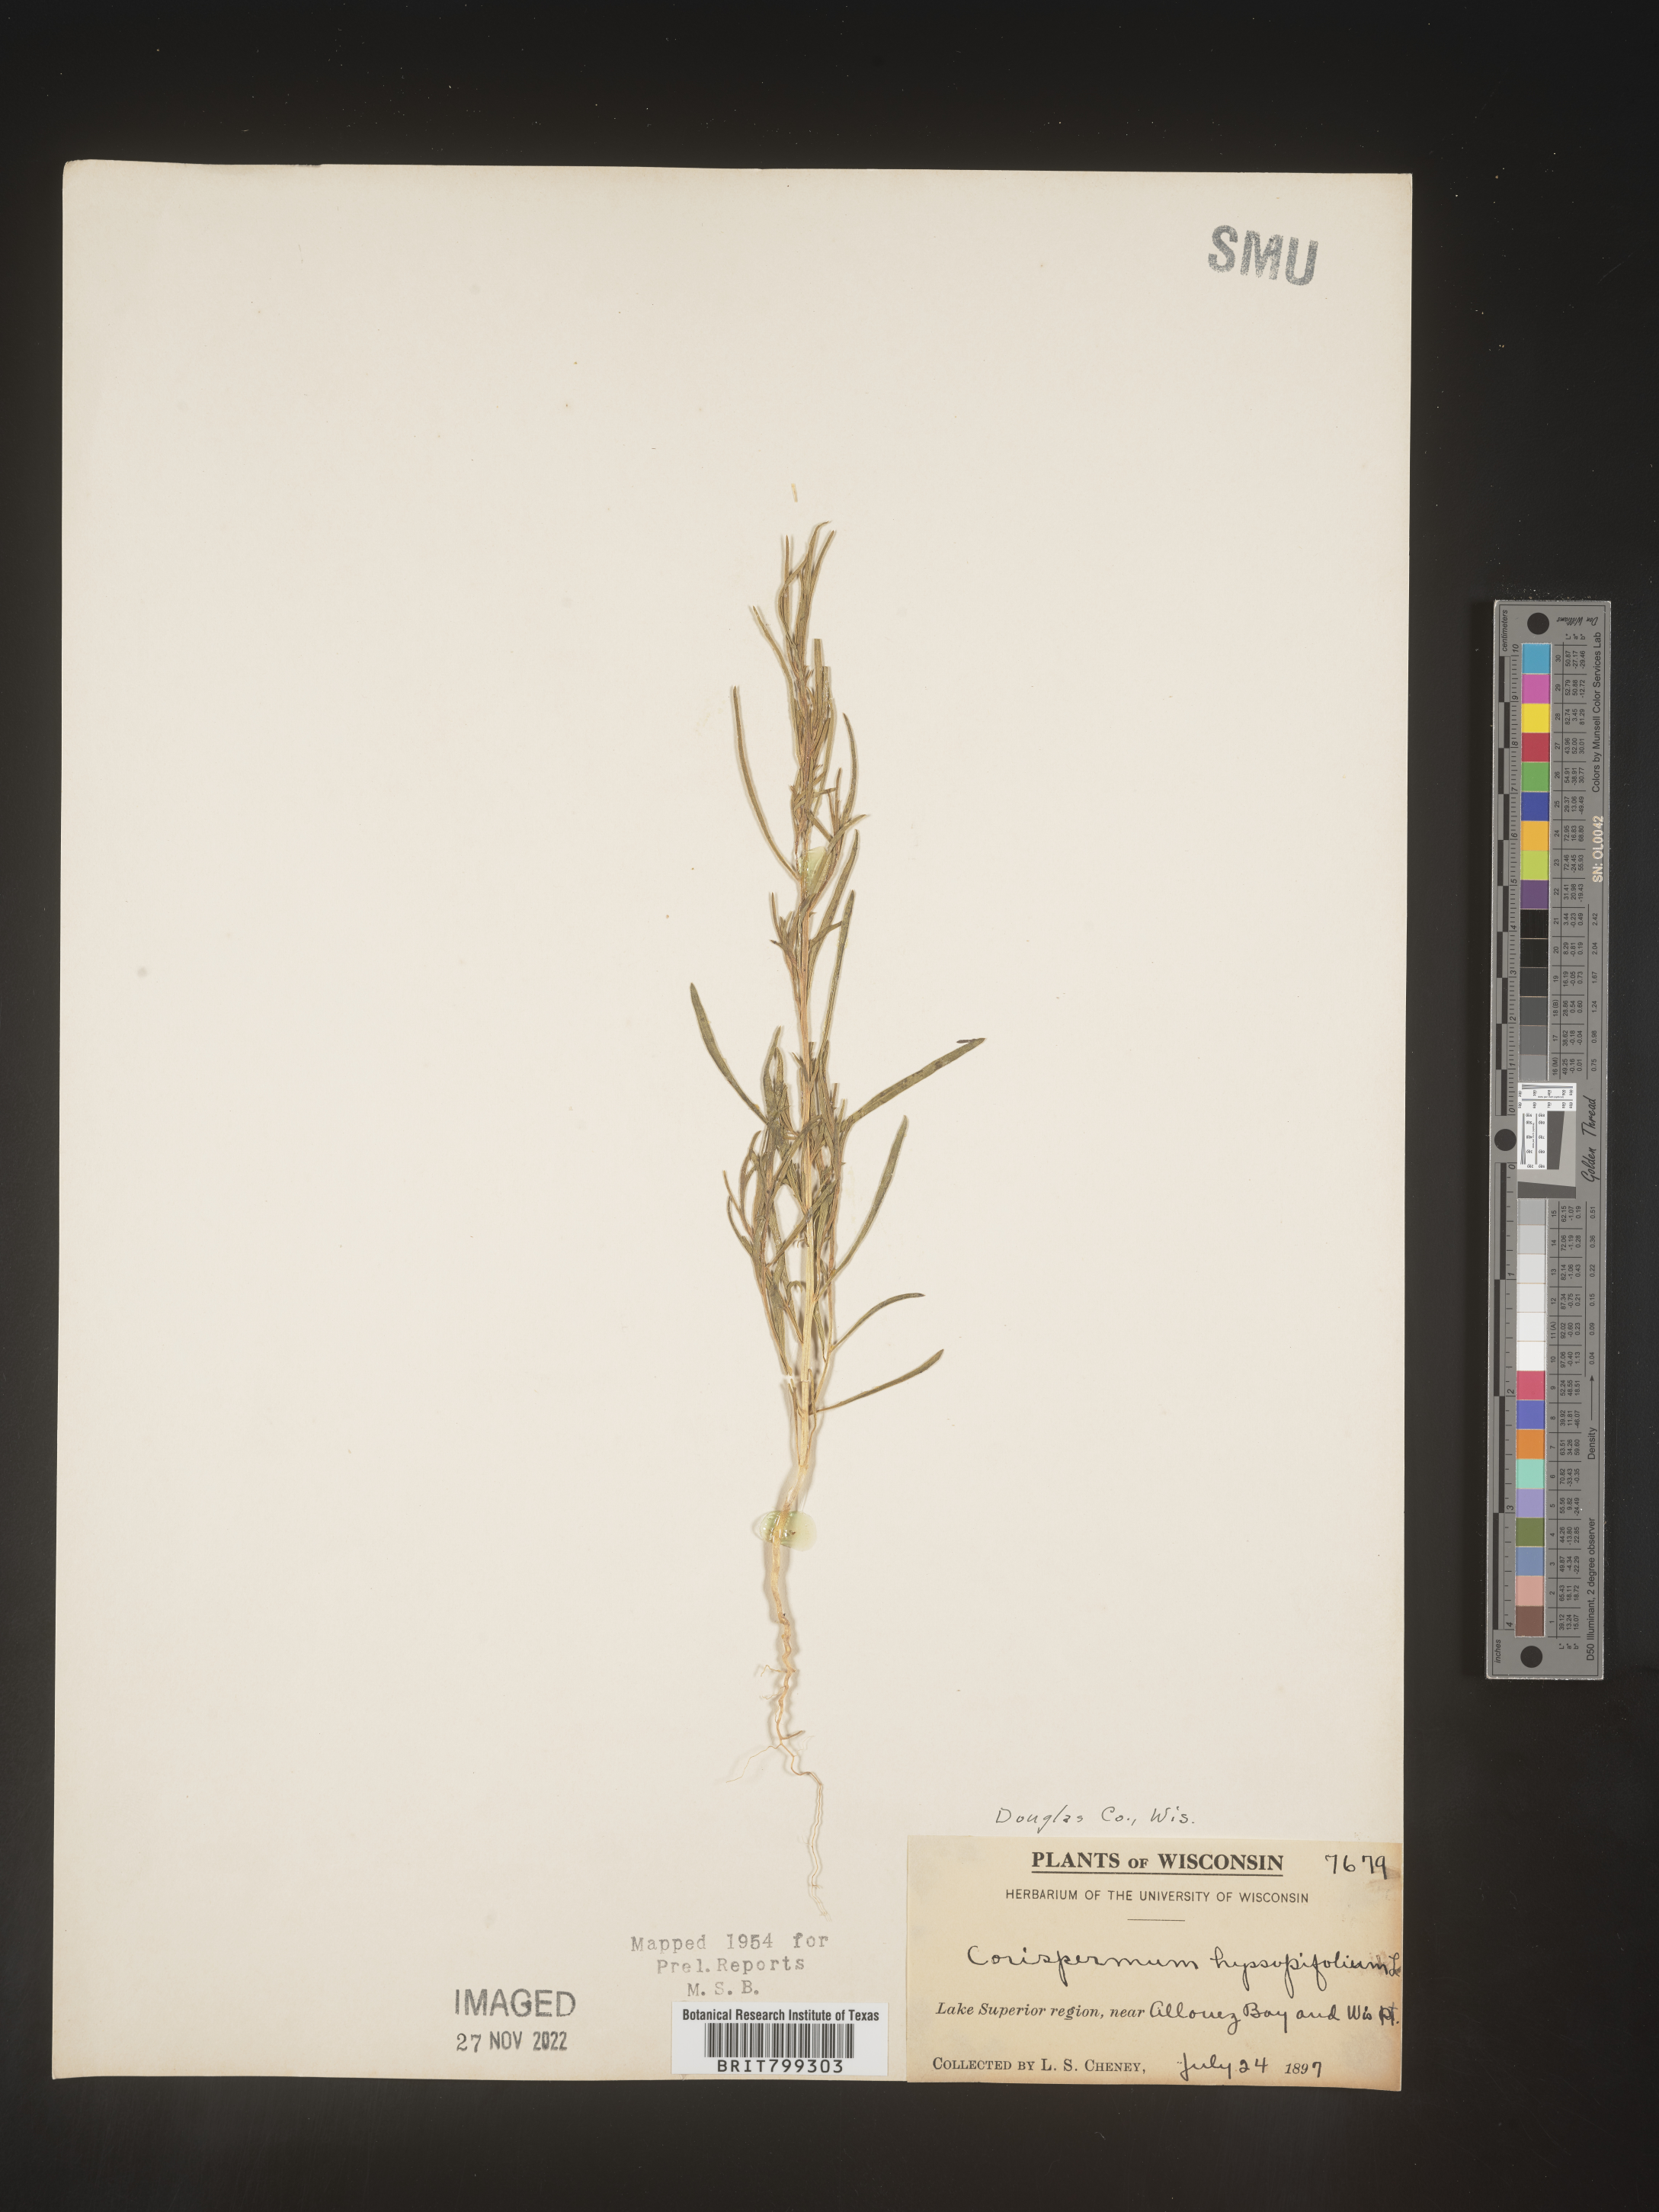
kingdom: Plantae
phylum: Tracheophyta
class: Magnoliopsida
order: Caryophyllales
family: Amaranthaceae
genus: Corispermum
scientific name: Corispermum americanum
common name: American bugseed
